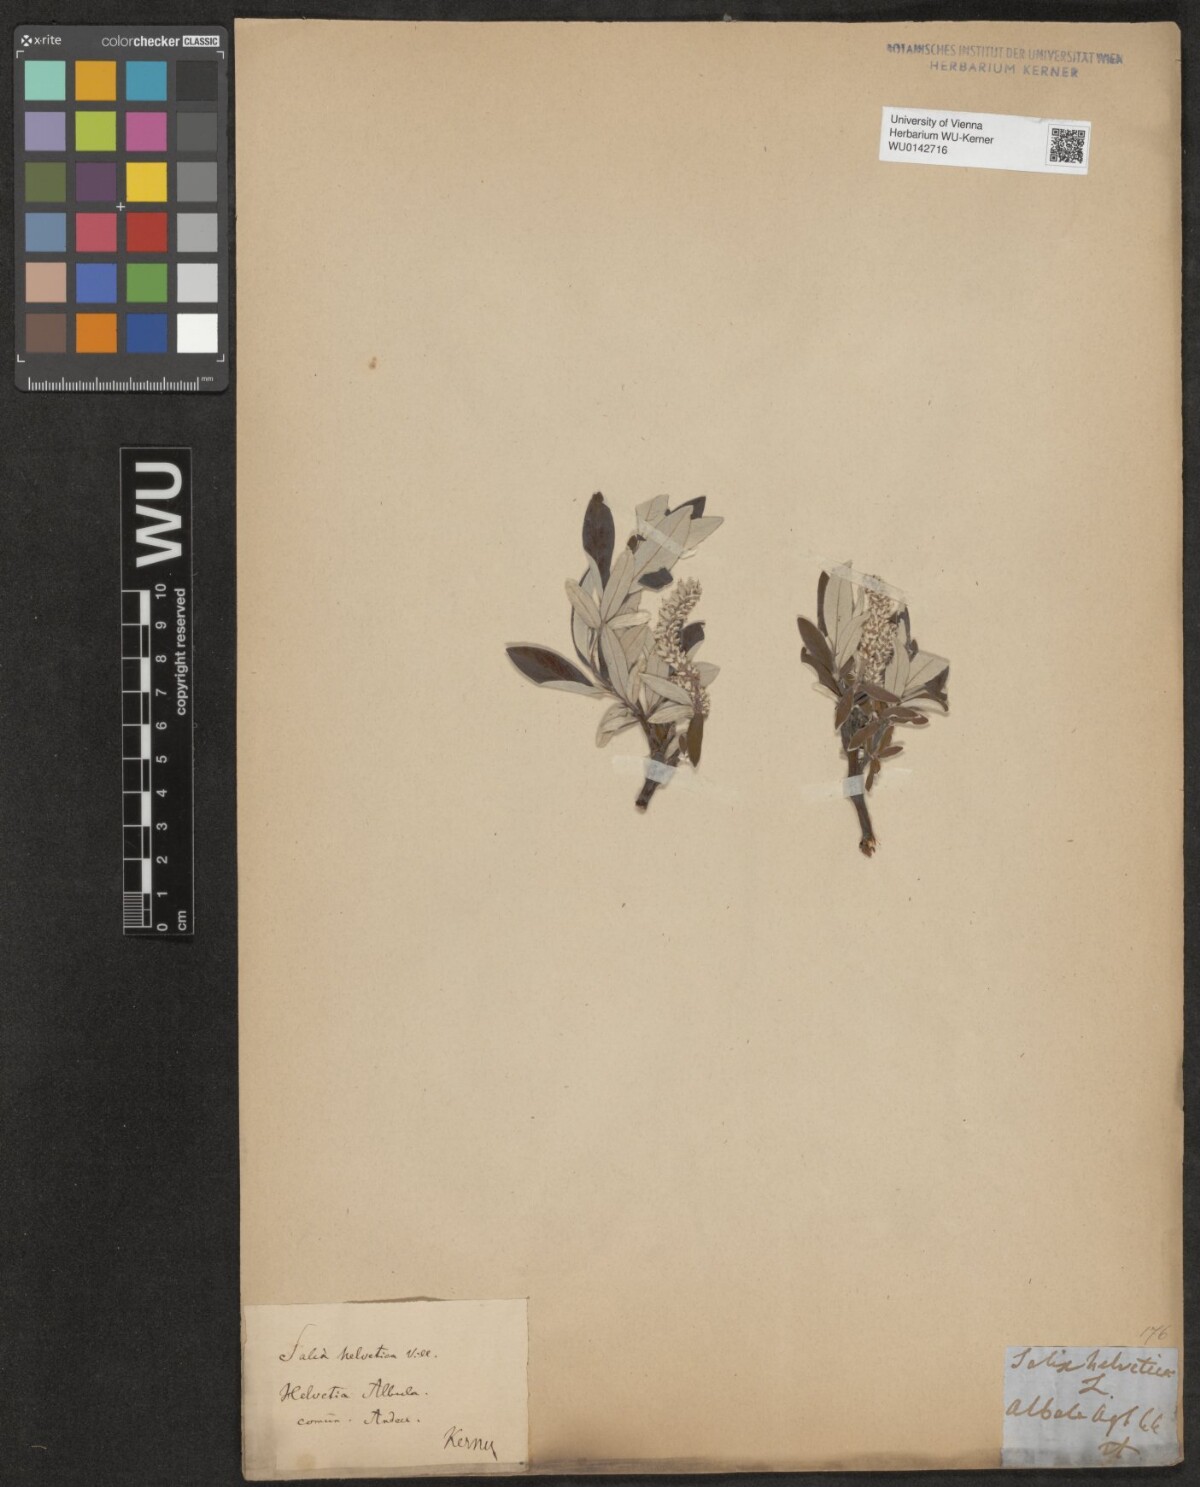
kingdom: Plantae
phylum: Tracheophyta
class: Magnoliopsida
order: Malpighiales
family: Salicaceae
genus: Salix
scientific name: Salix helvetica
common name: Swiss willow
